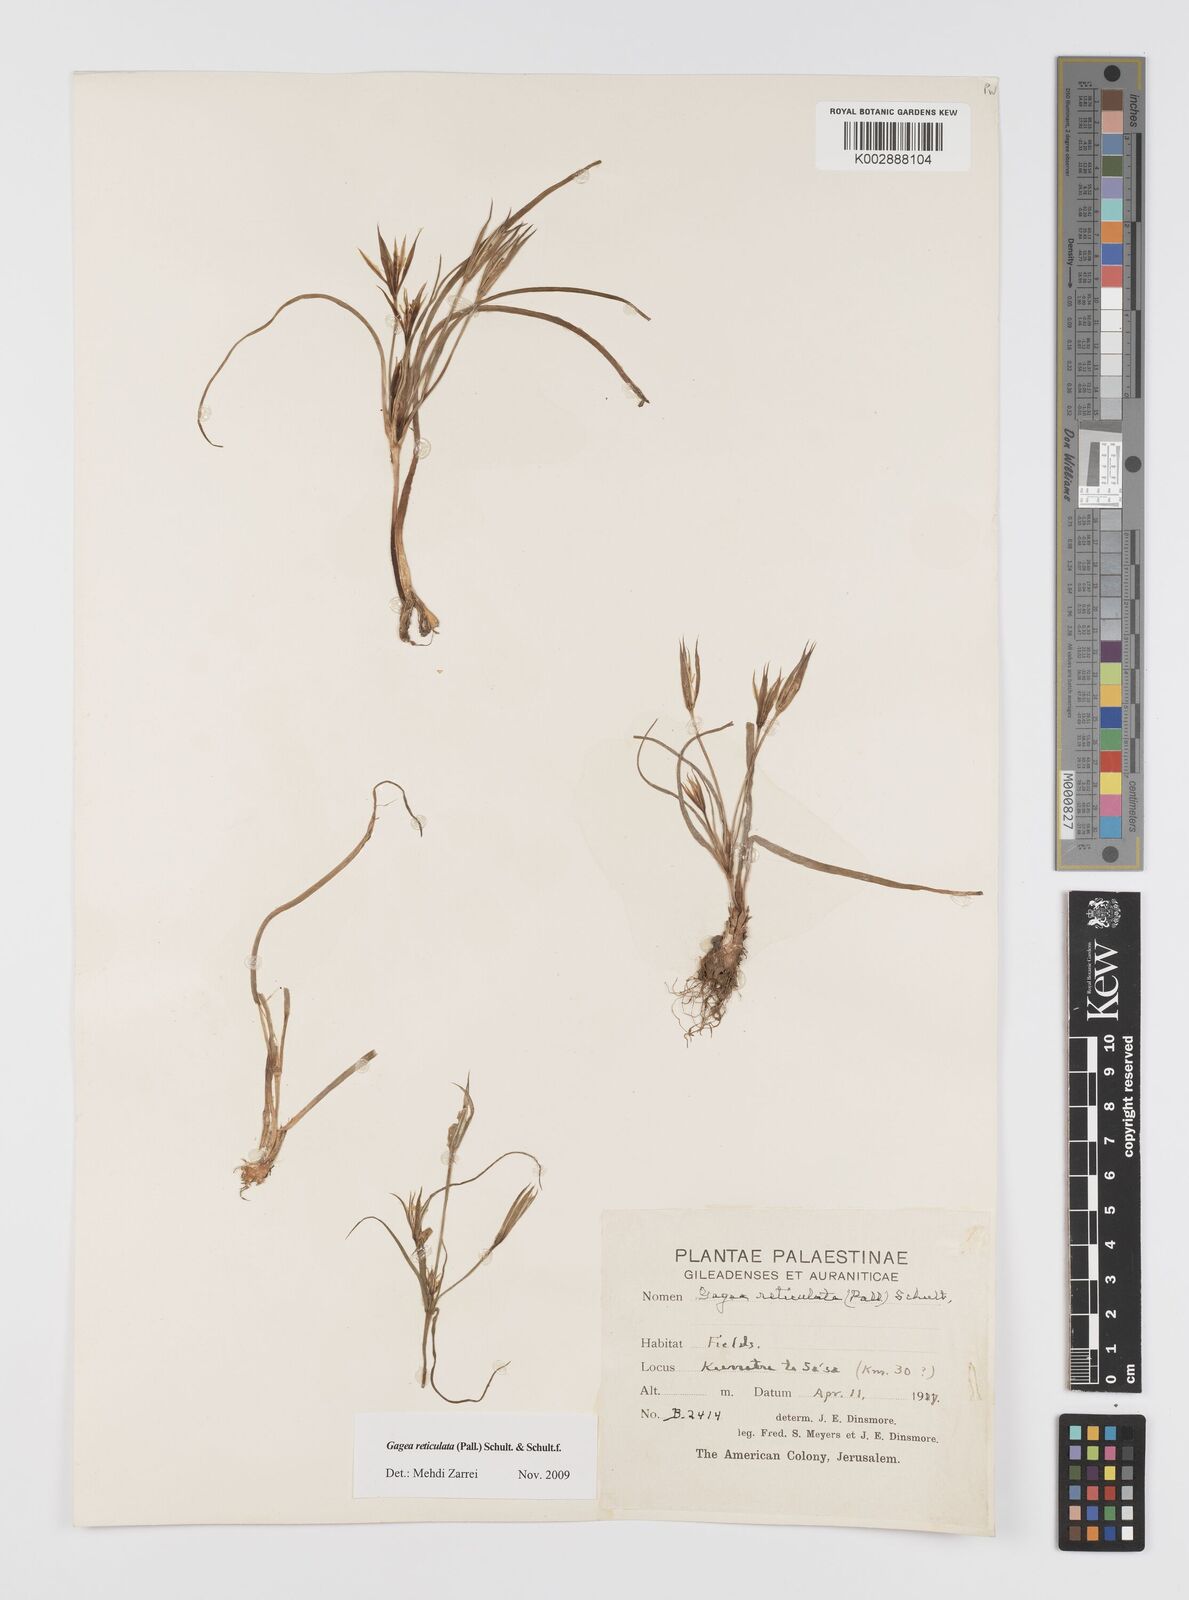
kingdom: Plantae
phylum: Tracheophyta
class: Liliopsida
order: Liliales
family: Liliaceae
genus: Gagea
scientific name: Gagea reticulata
